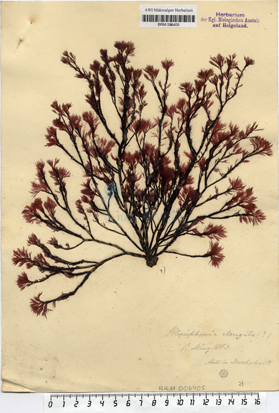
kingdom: Plantae
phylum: Rhodophyta
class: Florideophyceae
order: Ceramiales
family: Rhodomelaceae
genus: Vertebrata
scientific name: Vertebrata spec
